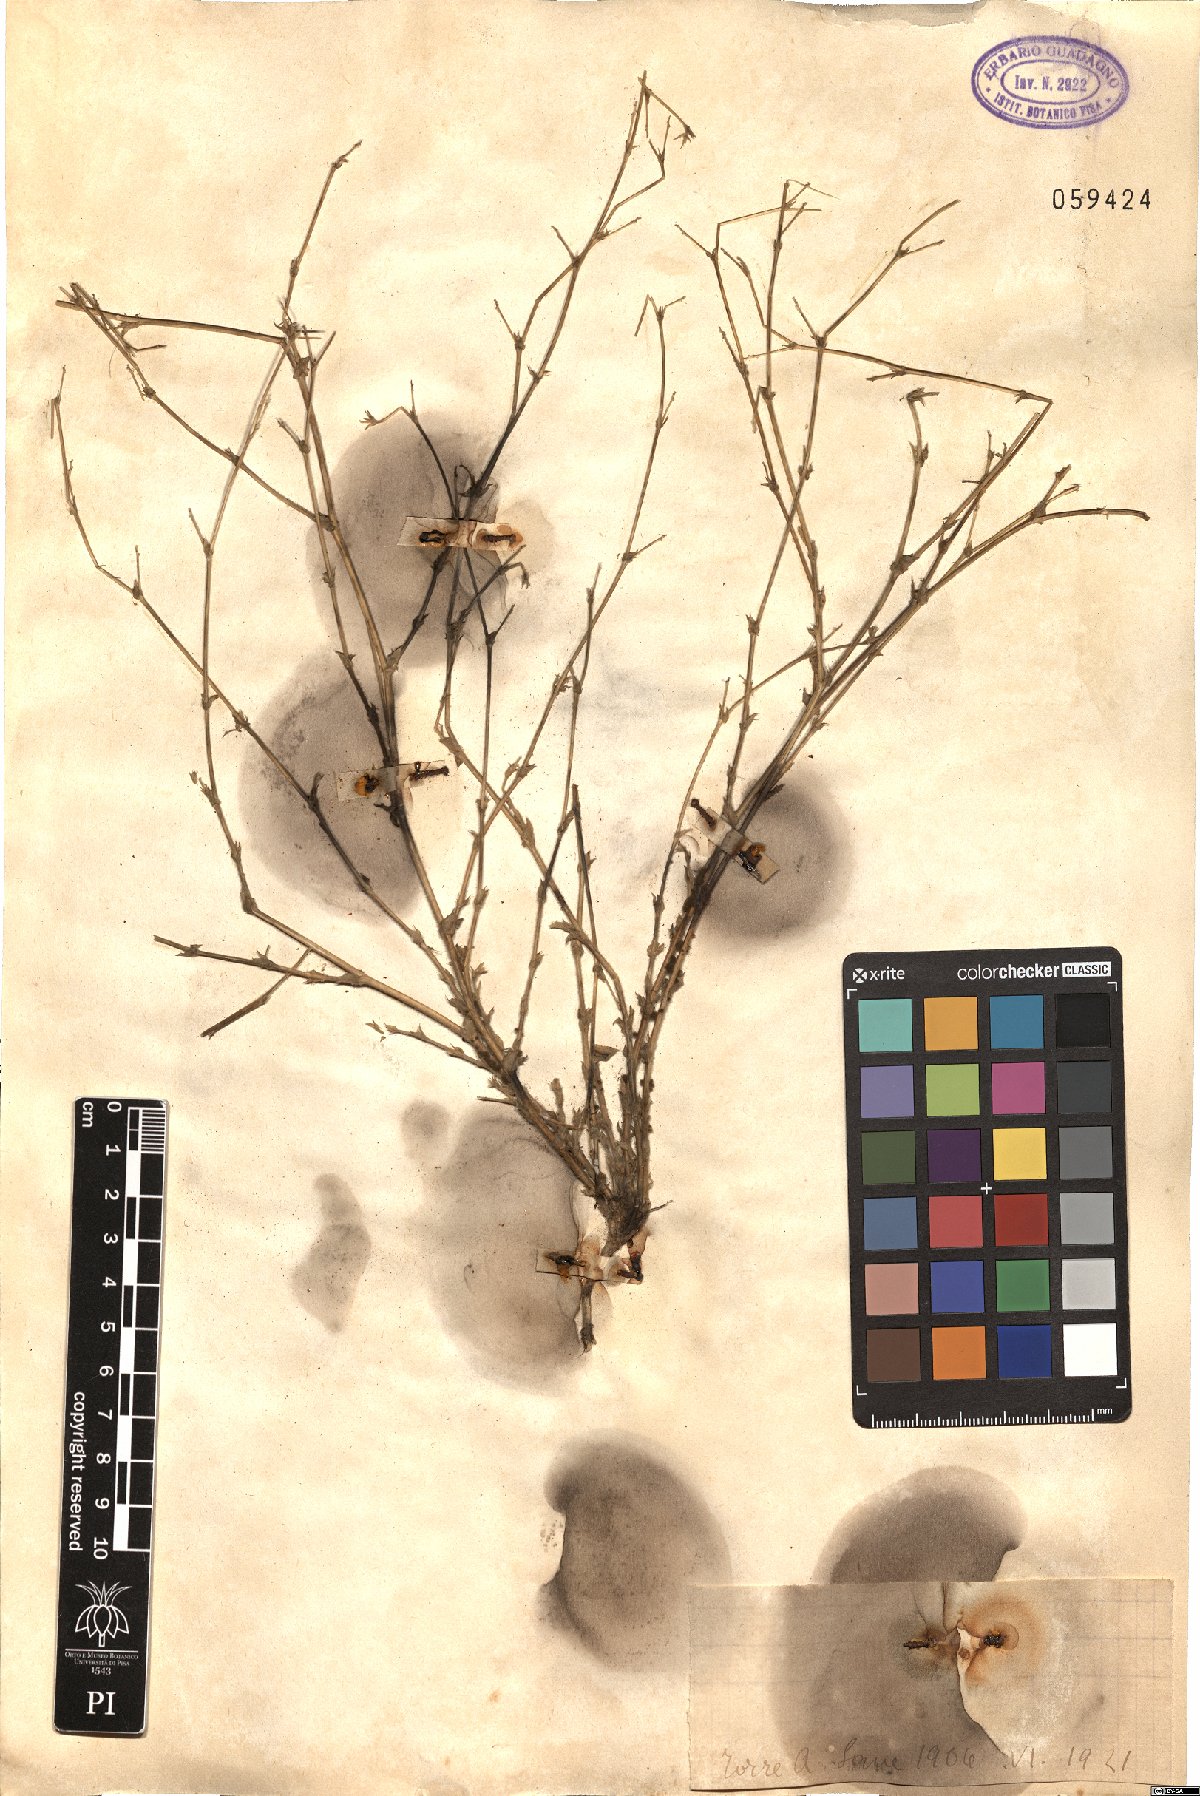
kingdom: Plantae
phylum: Tracheophyta
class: Magnoliopsida
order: Lamiales
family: Lamiaceae
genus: Stachys
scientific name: Stachys
